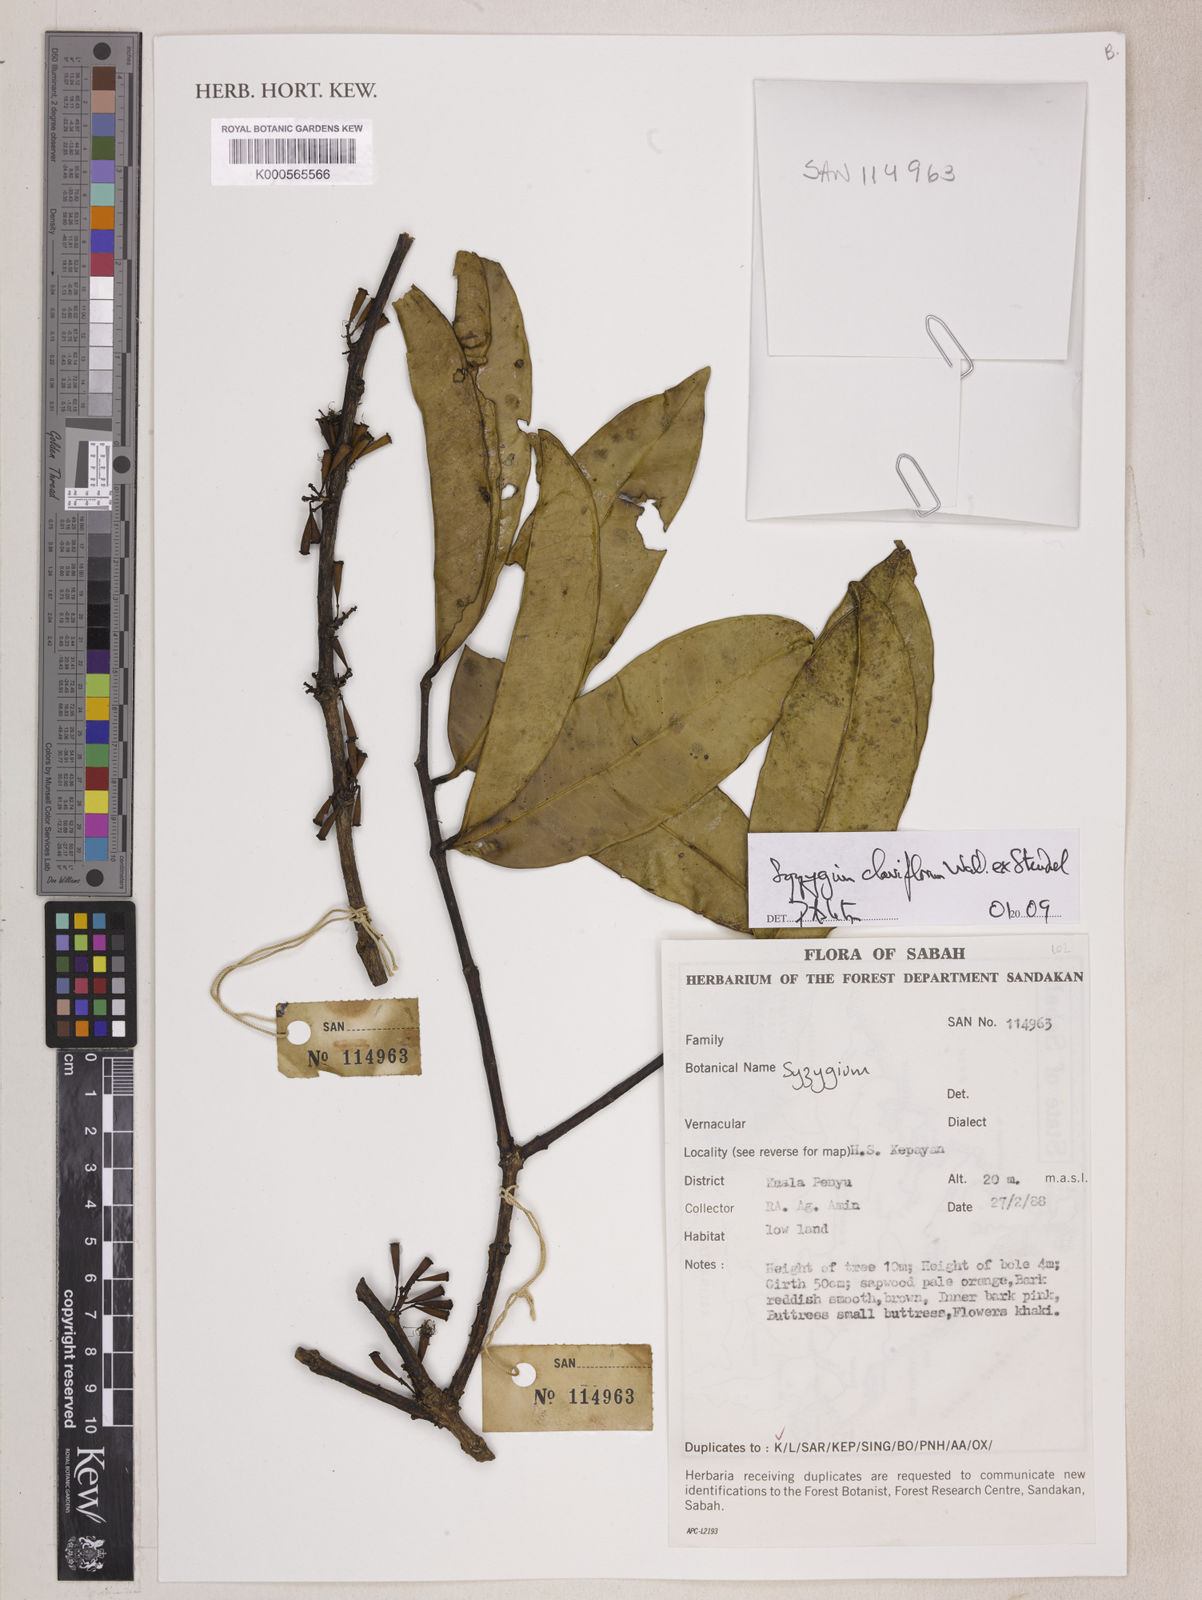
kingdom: Plantae
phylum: Tracheophyta
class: Magnoliopsida
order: Myrtales
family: Myrtaceae
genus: Syzygium
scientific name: Syzygium
